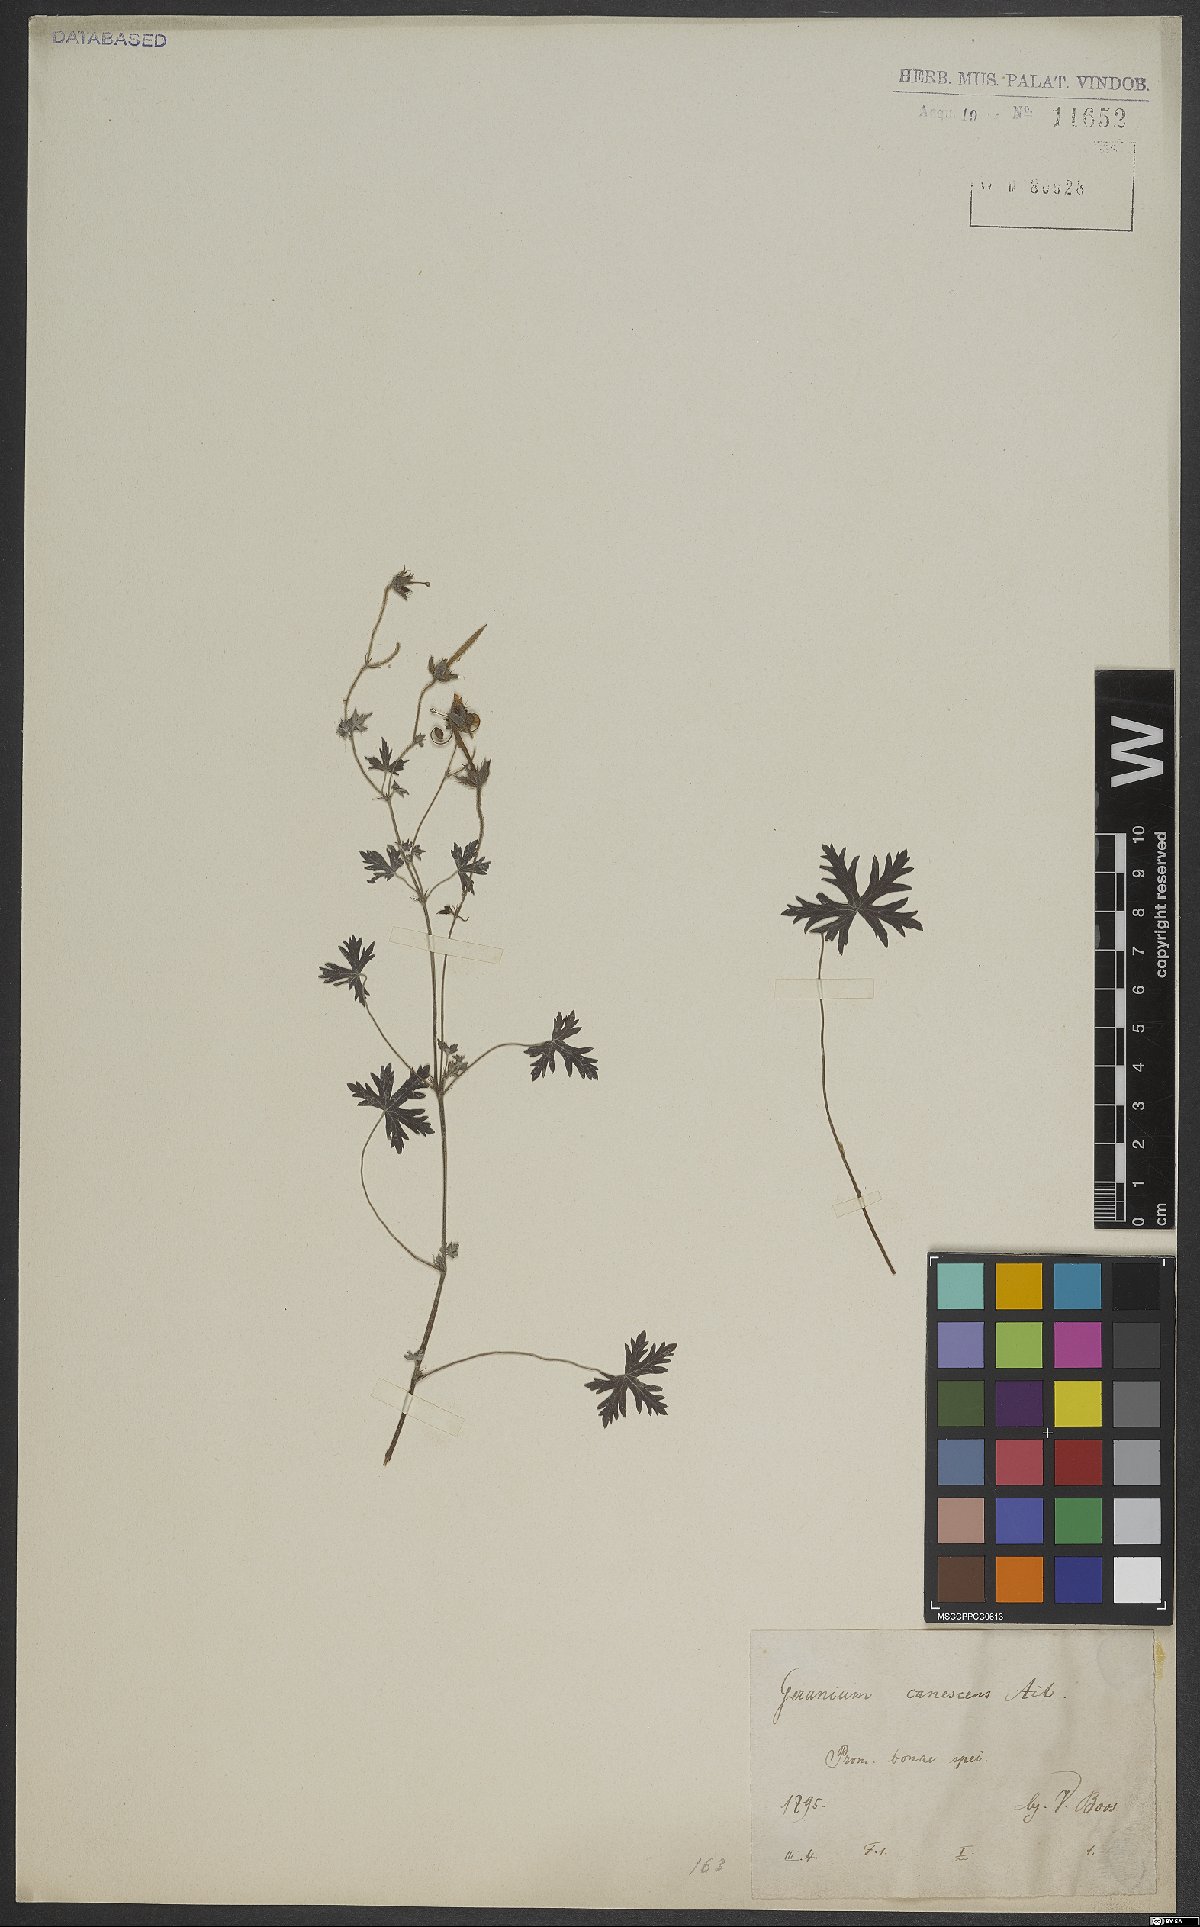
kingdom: Plantae
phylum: Tracheophyta
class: Magnoliopsida
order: Geraniales
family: Geraniaceae
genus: Geranium
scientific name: Geranium canescens
